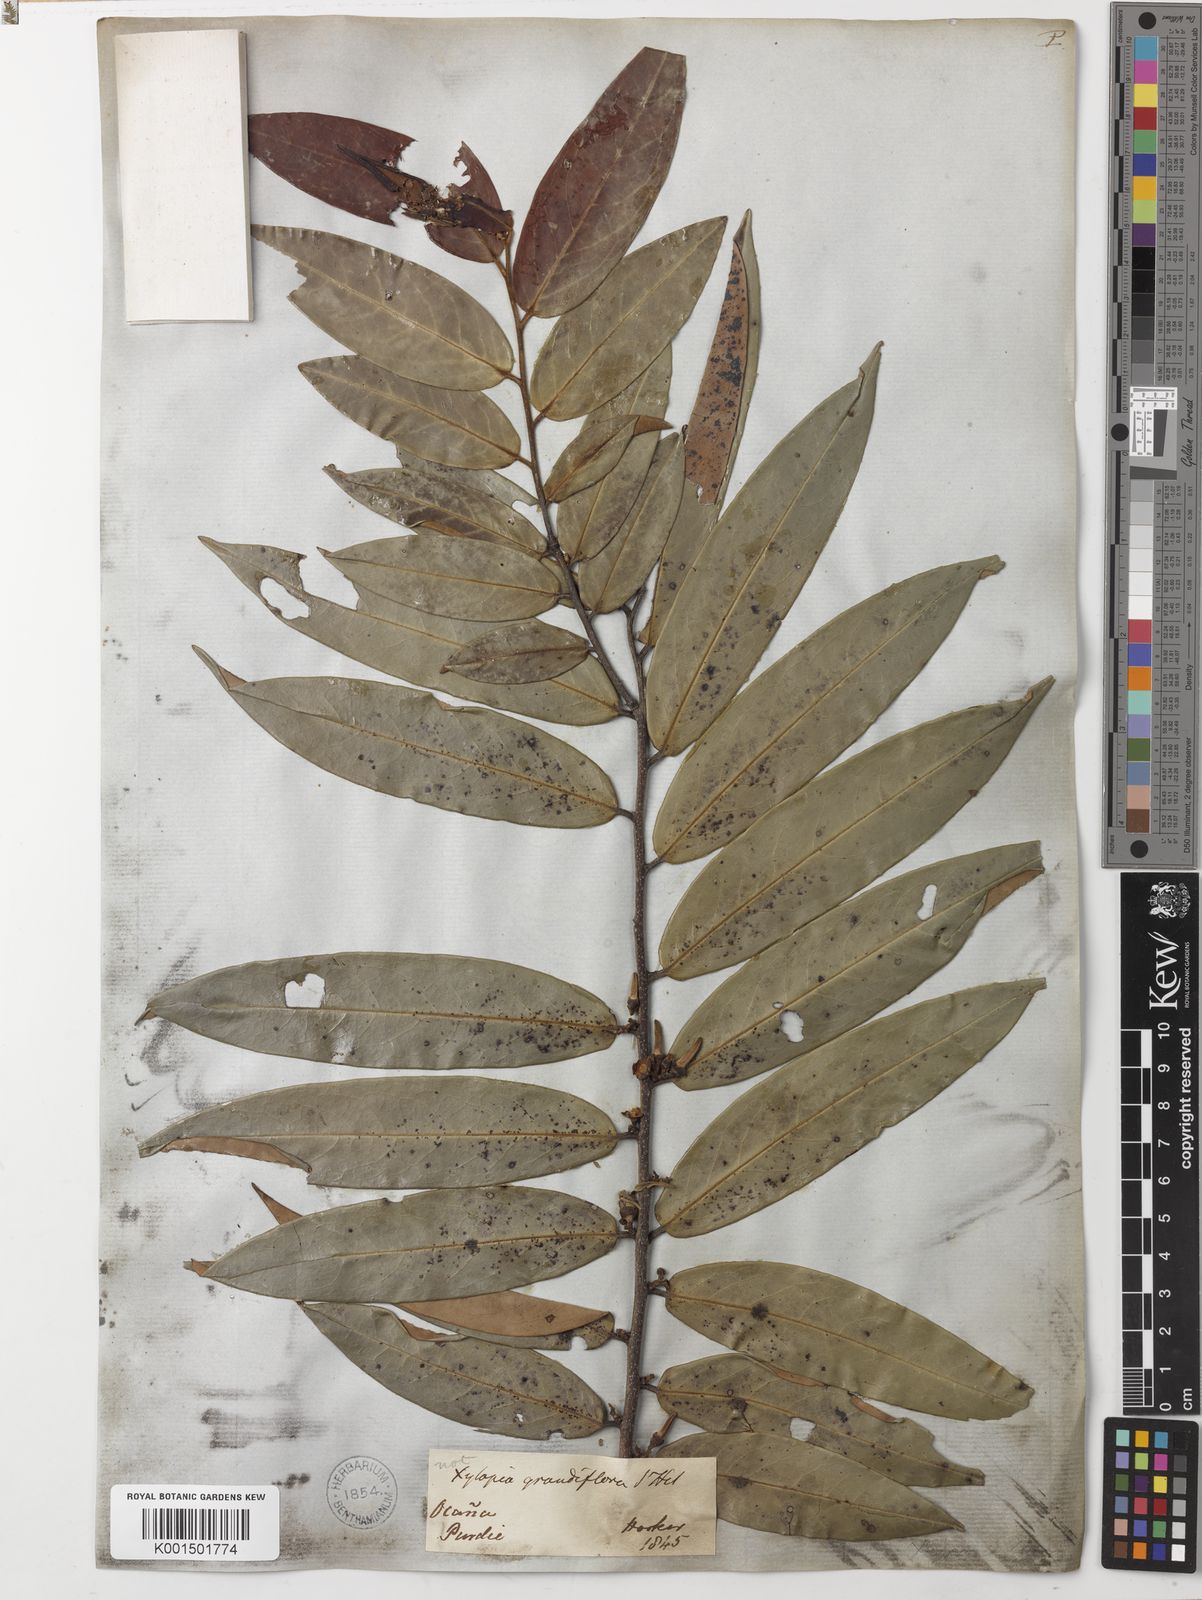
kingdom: Plantae
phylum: Tracheophyta
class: Magnoliopsida
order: Magnoliales
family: Annonaceae
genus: Xylopia
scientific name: Xylopia aromatica
